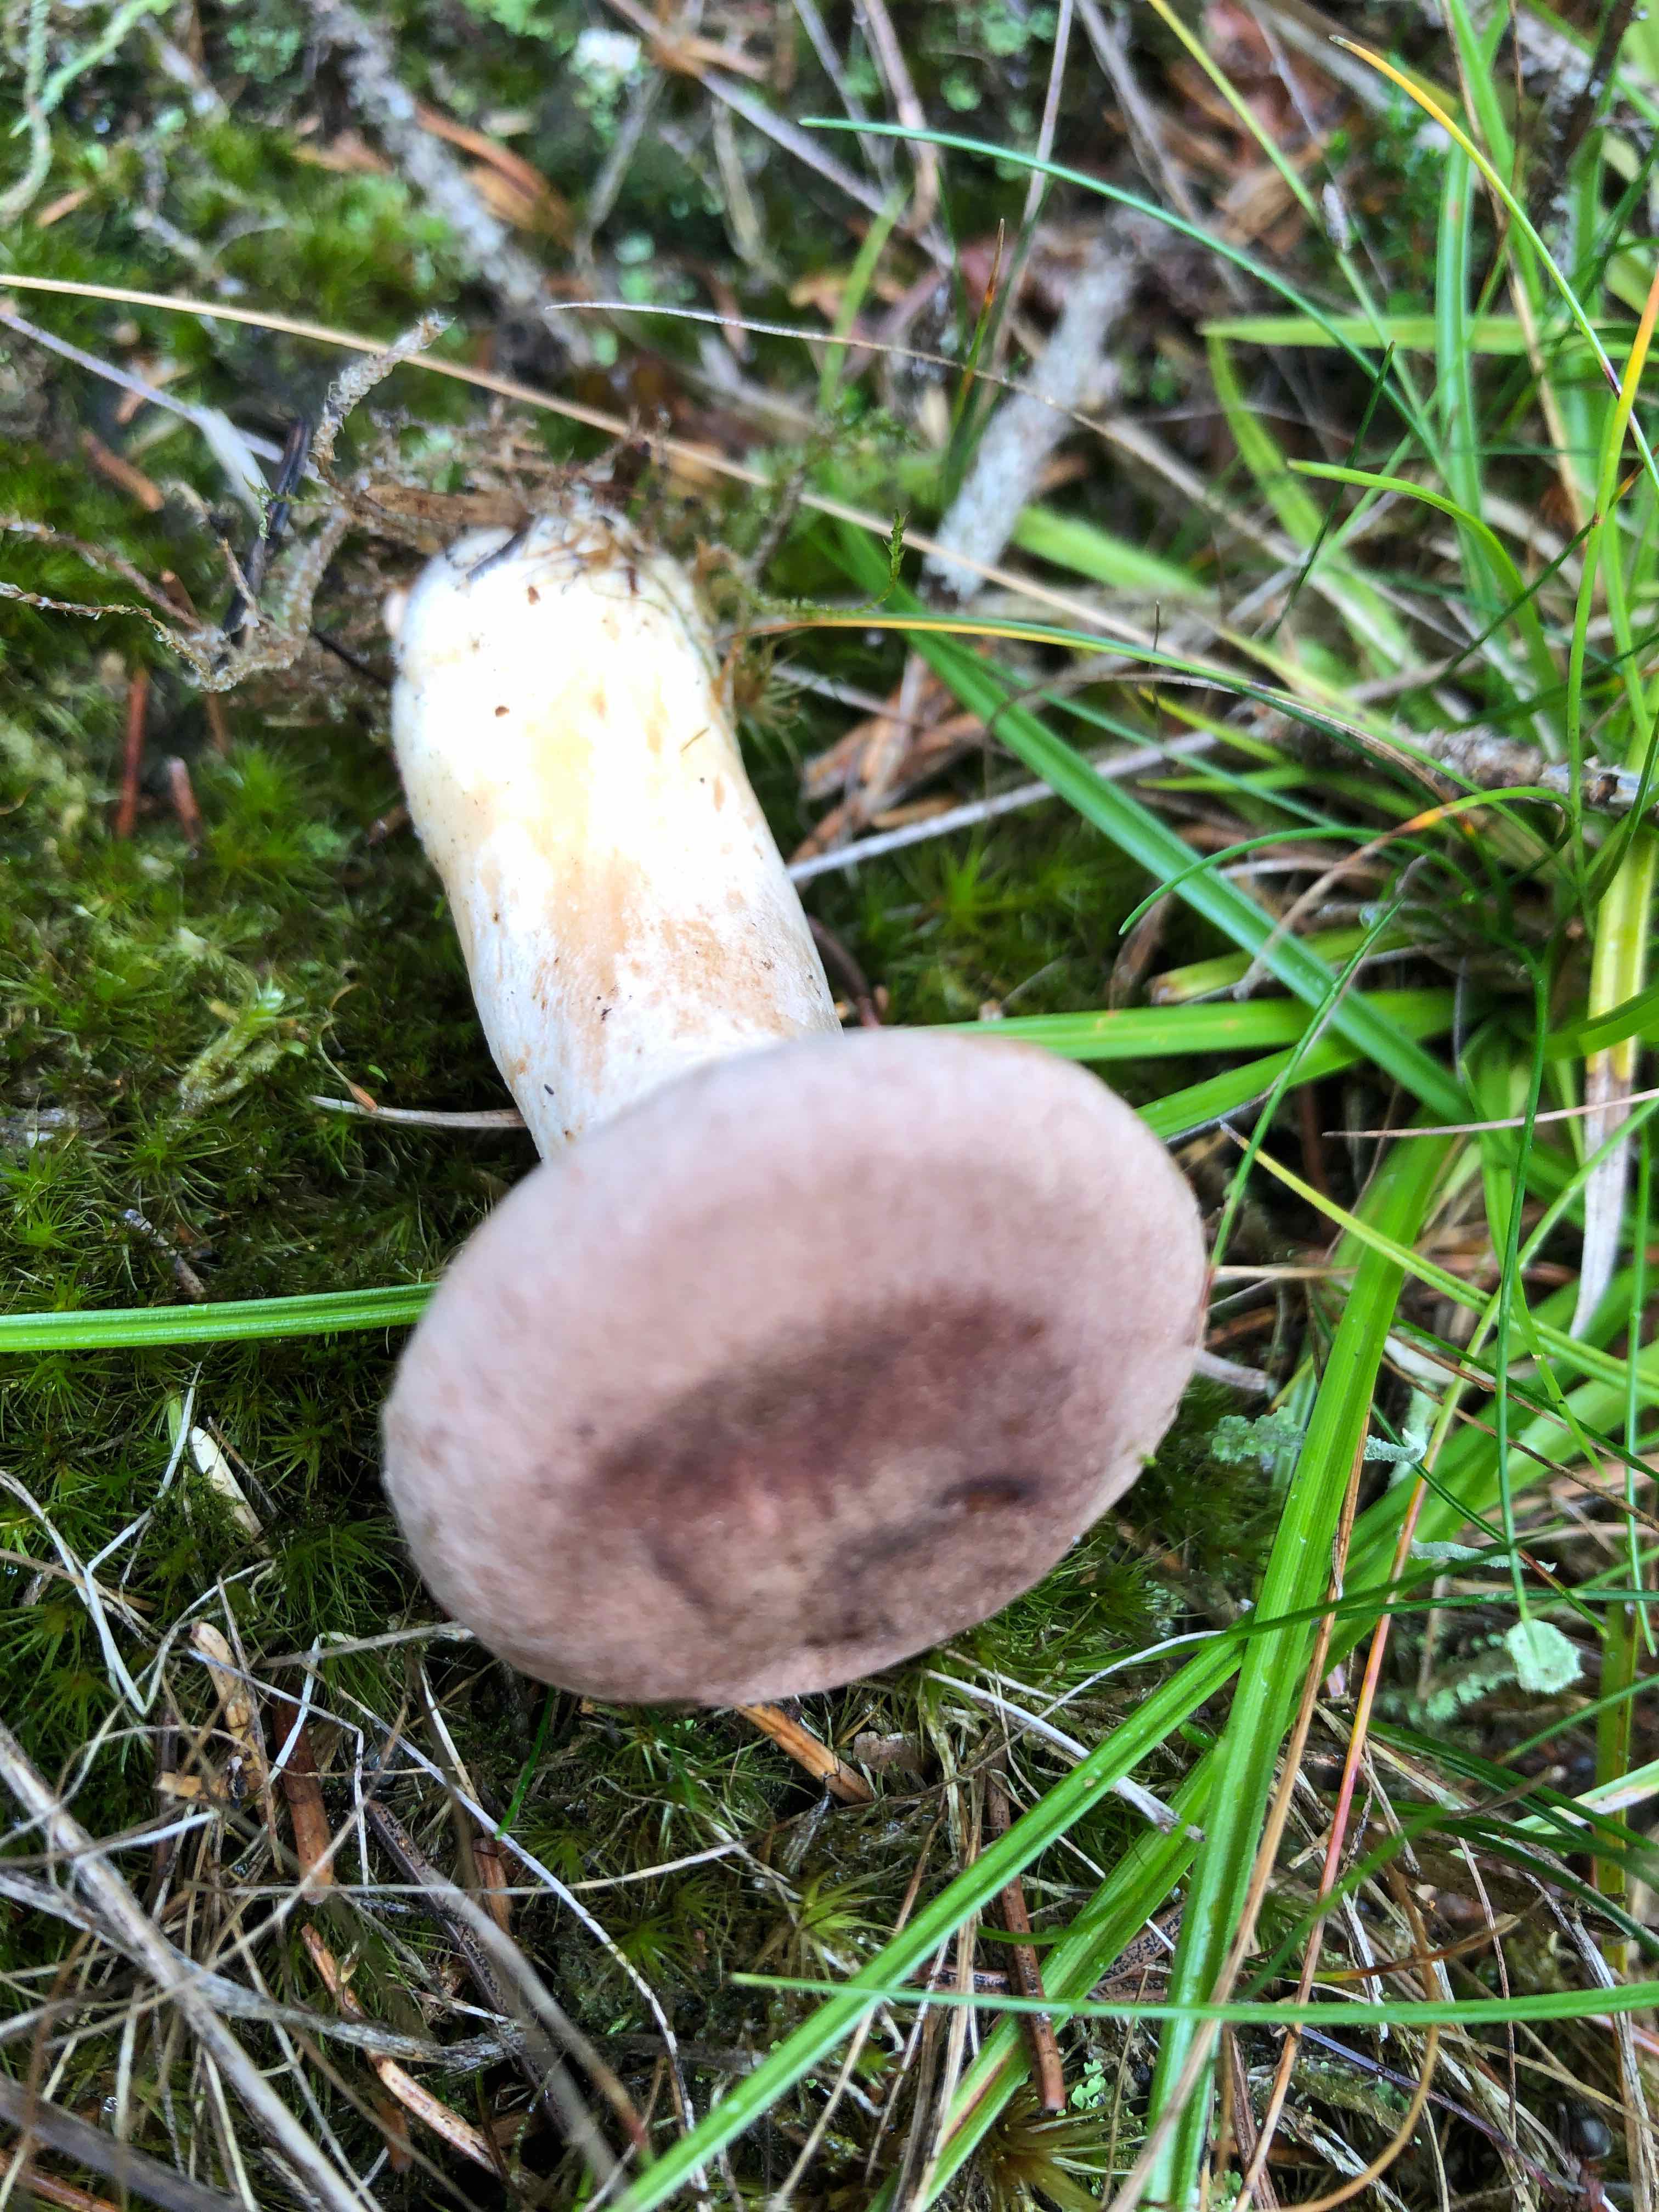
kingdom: Fungi
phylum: Basidiomycota
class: Agaricomycetes
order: Russulales
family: Russulaceae
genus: Lactarius
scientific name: Lactarius helvus
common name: mose-mælkehat
